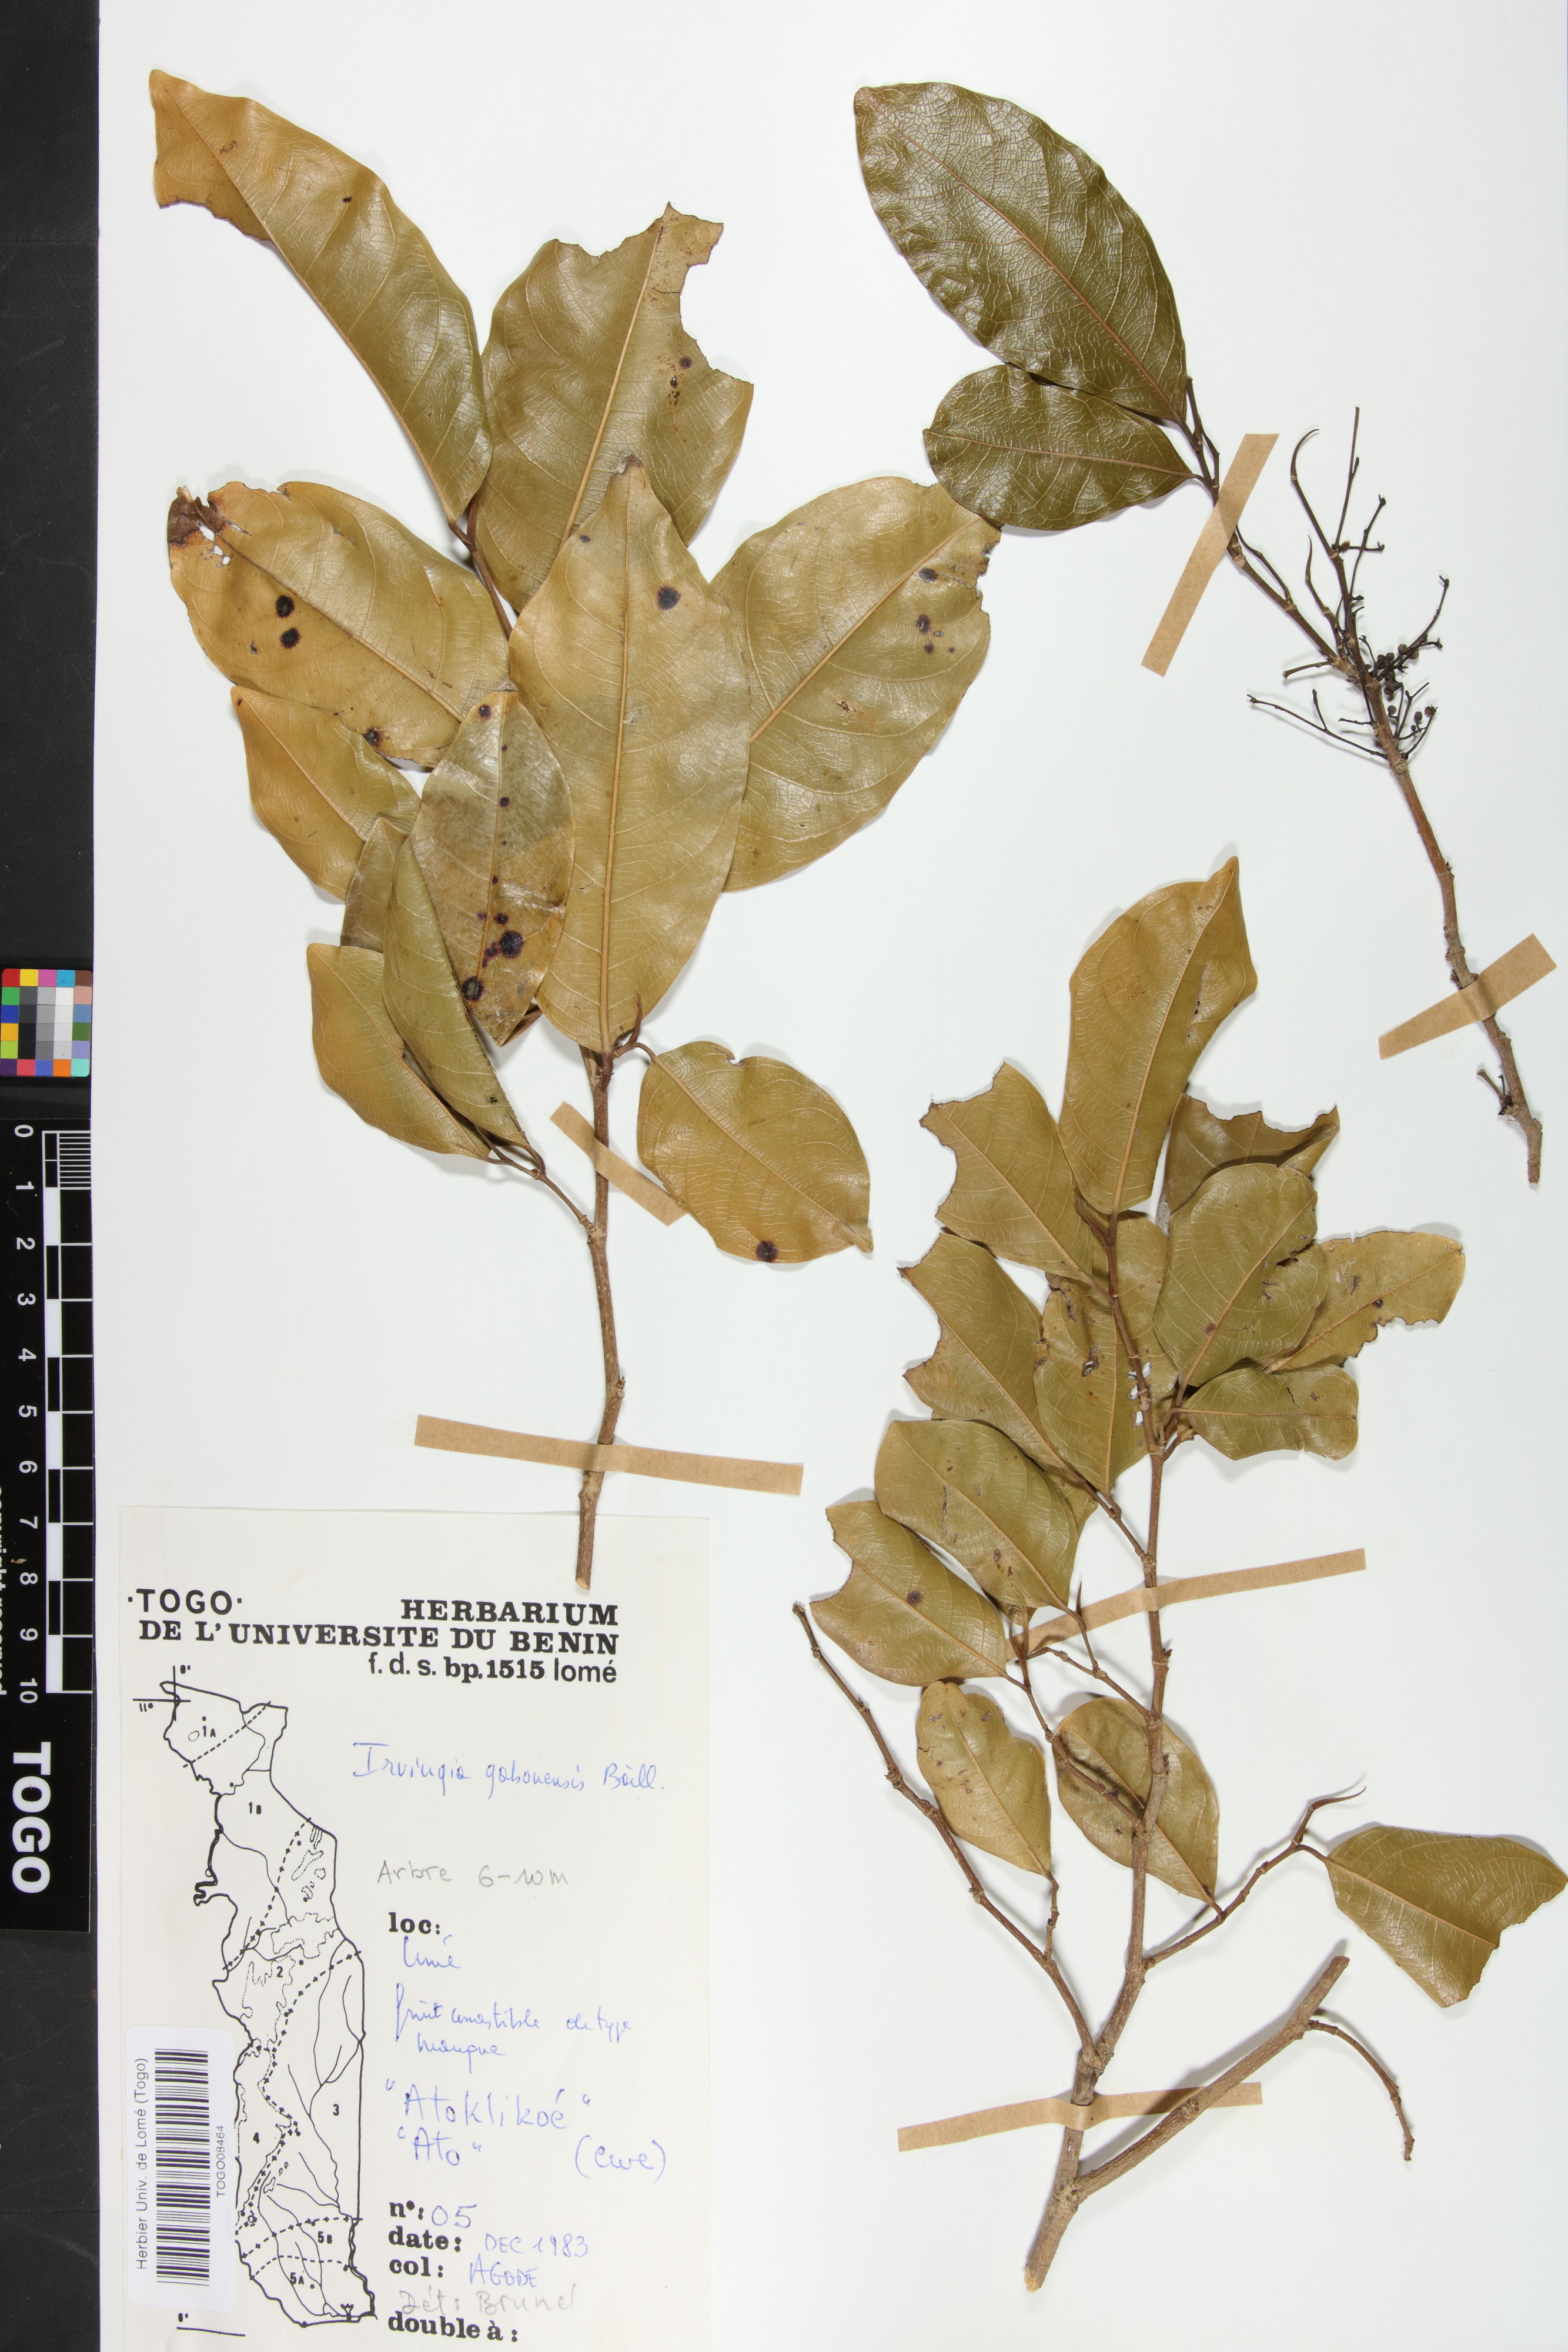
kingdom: Plantae
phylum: Tracheophyta
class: Magnoliopsida
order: Malpighiales
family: Irvingiaceae
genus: Irvingia
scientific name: Irvingia gabonensis
